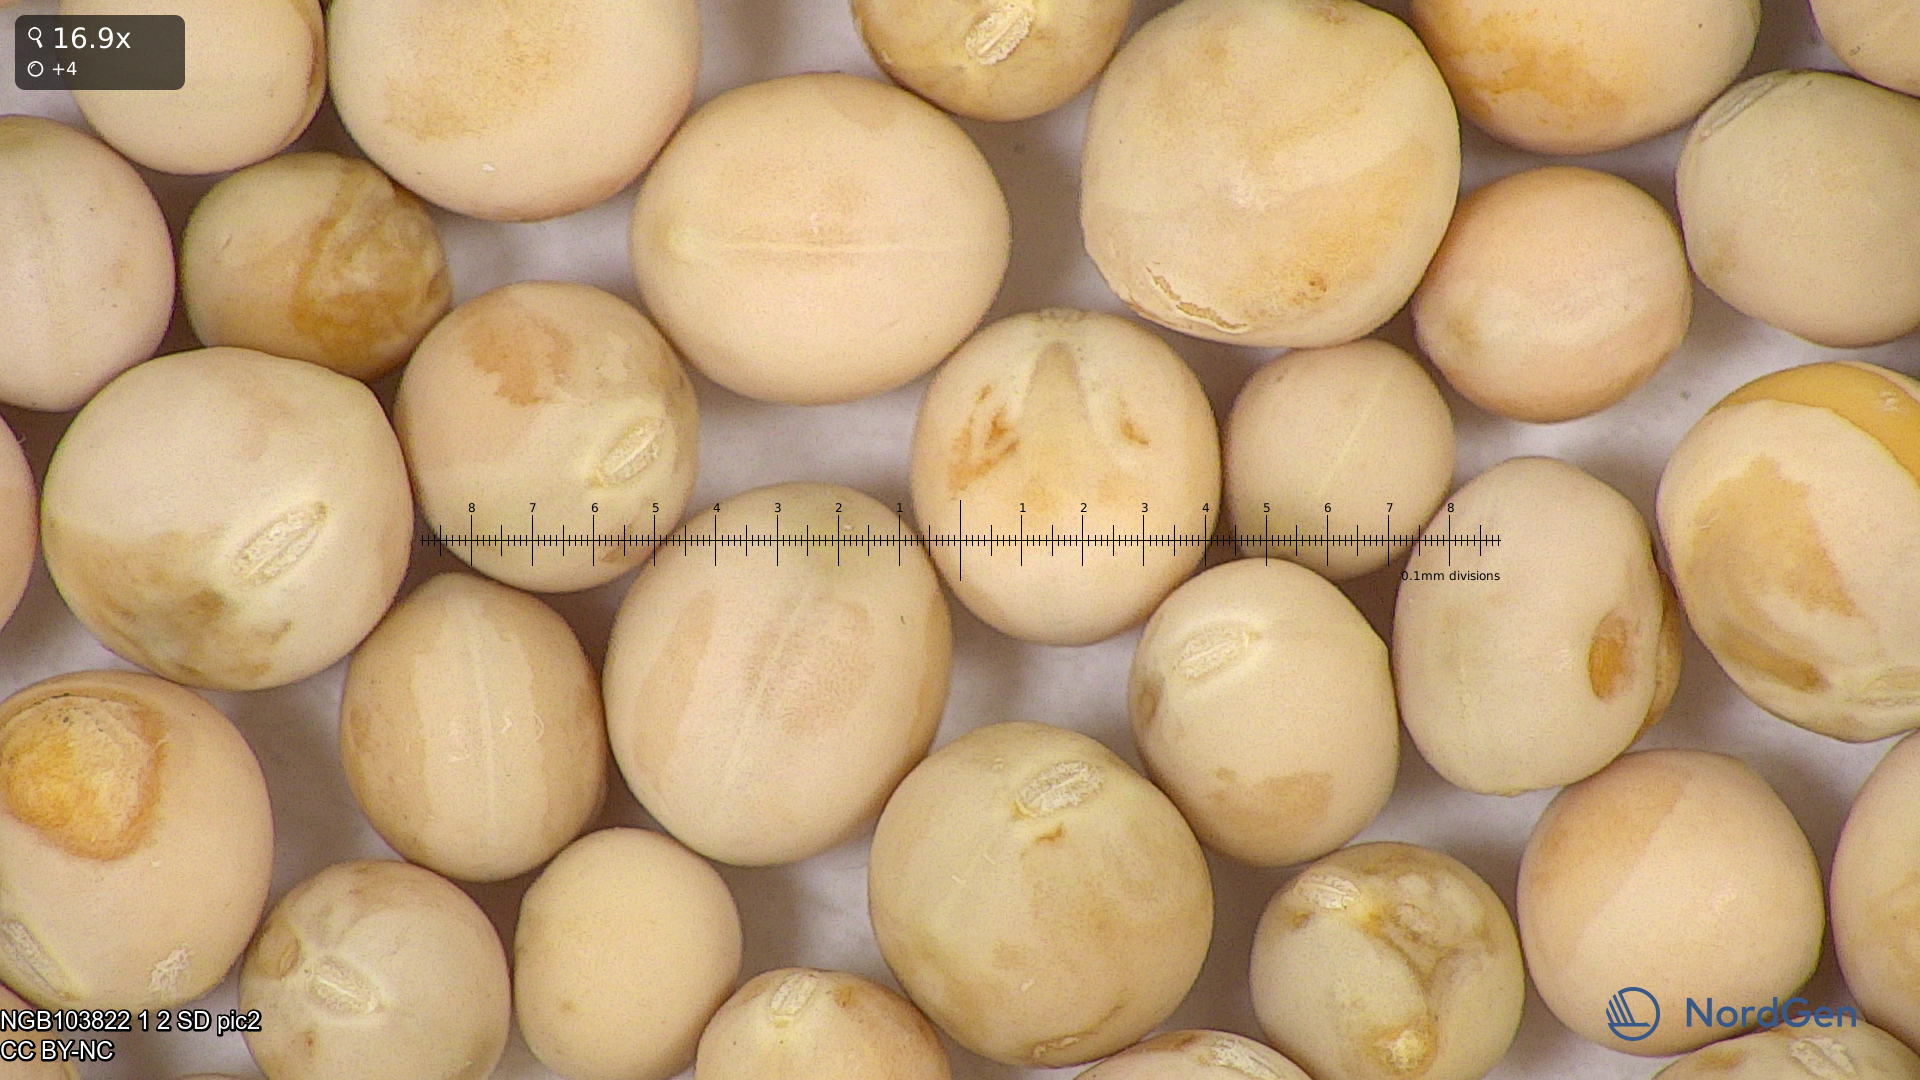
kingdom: Plantae
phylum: Tracheophyta
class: Magnoliopsida
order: Fabales
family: Fabaceae
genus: Lathyrus
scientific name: Lathyrus oleraceus
